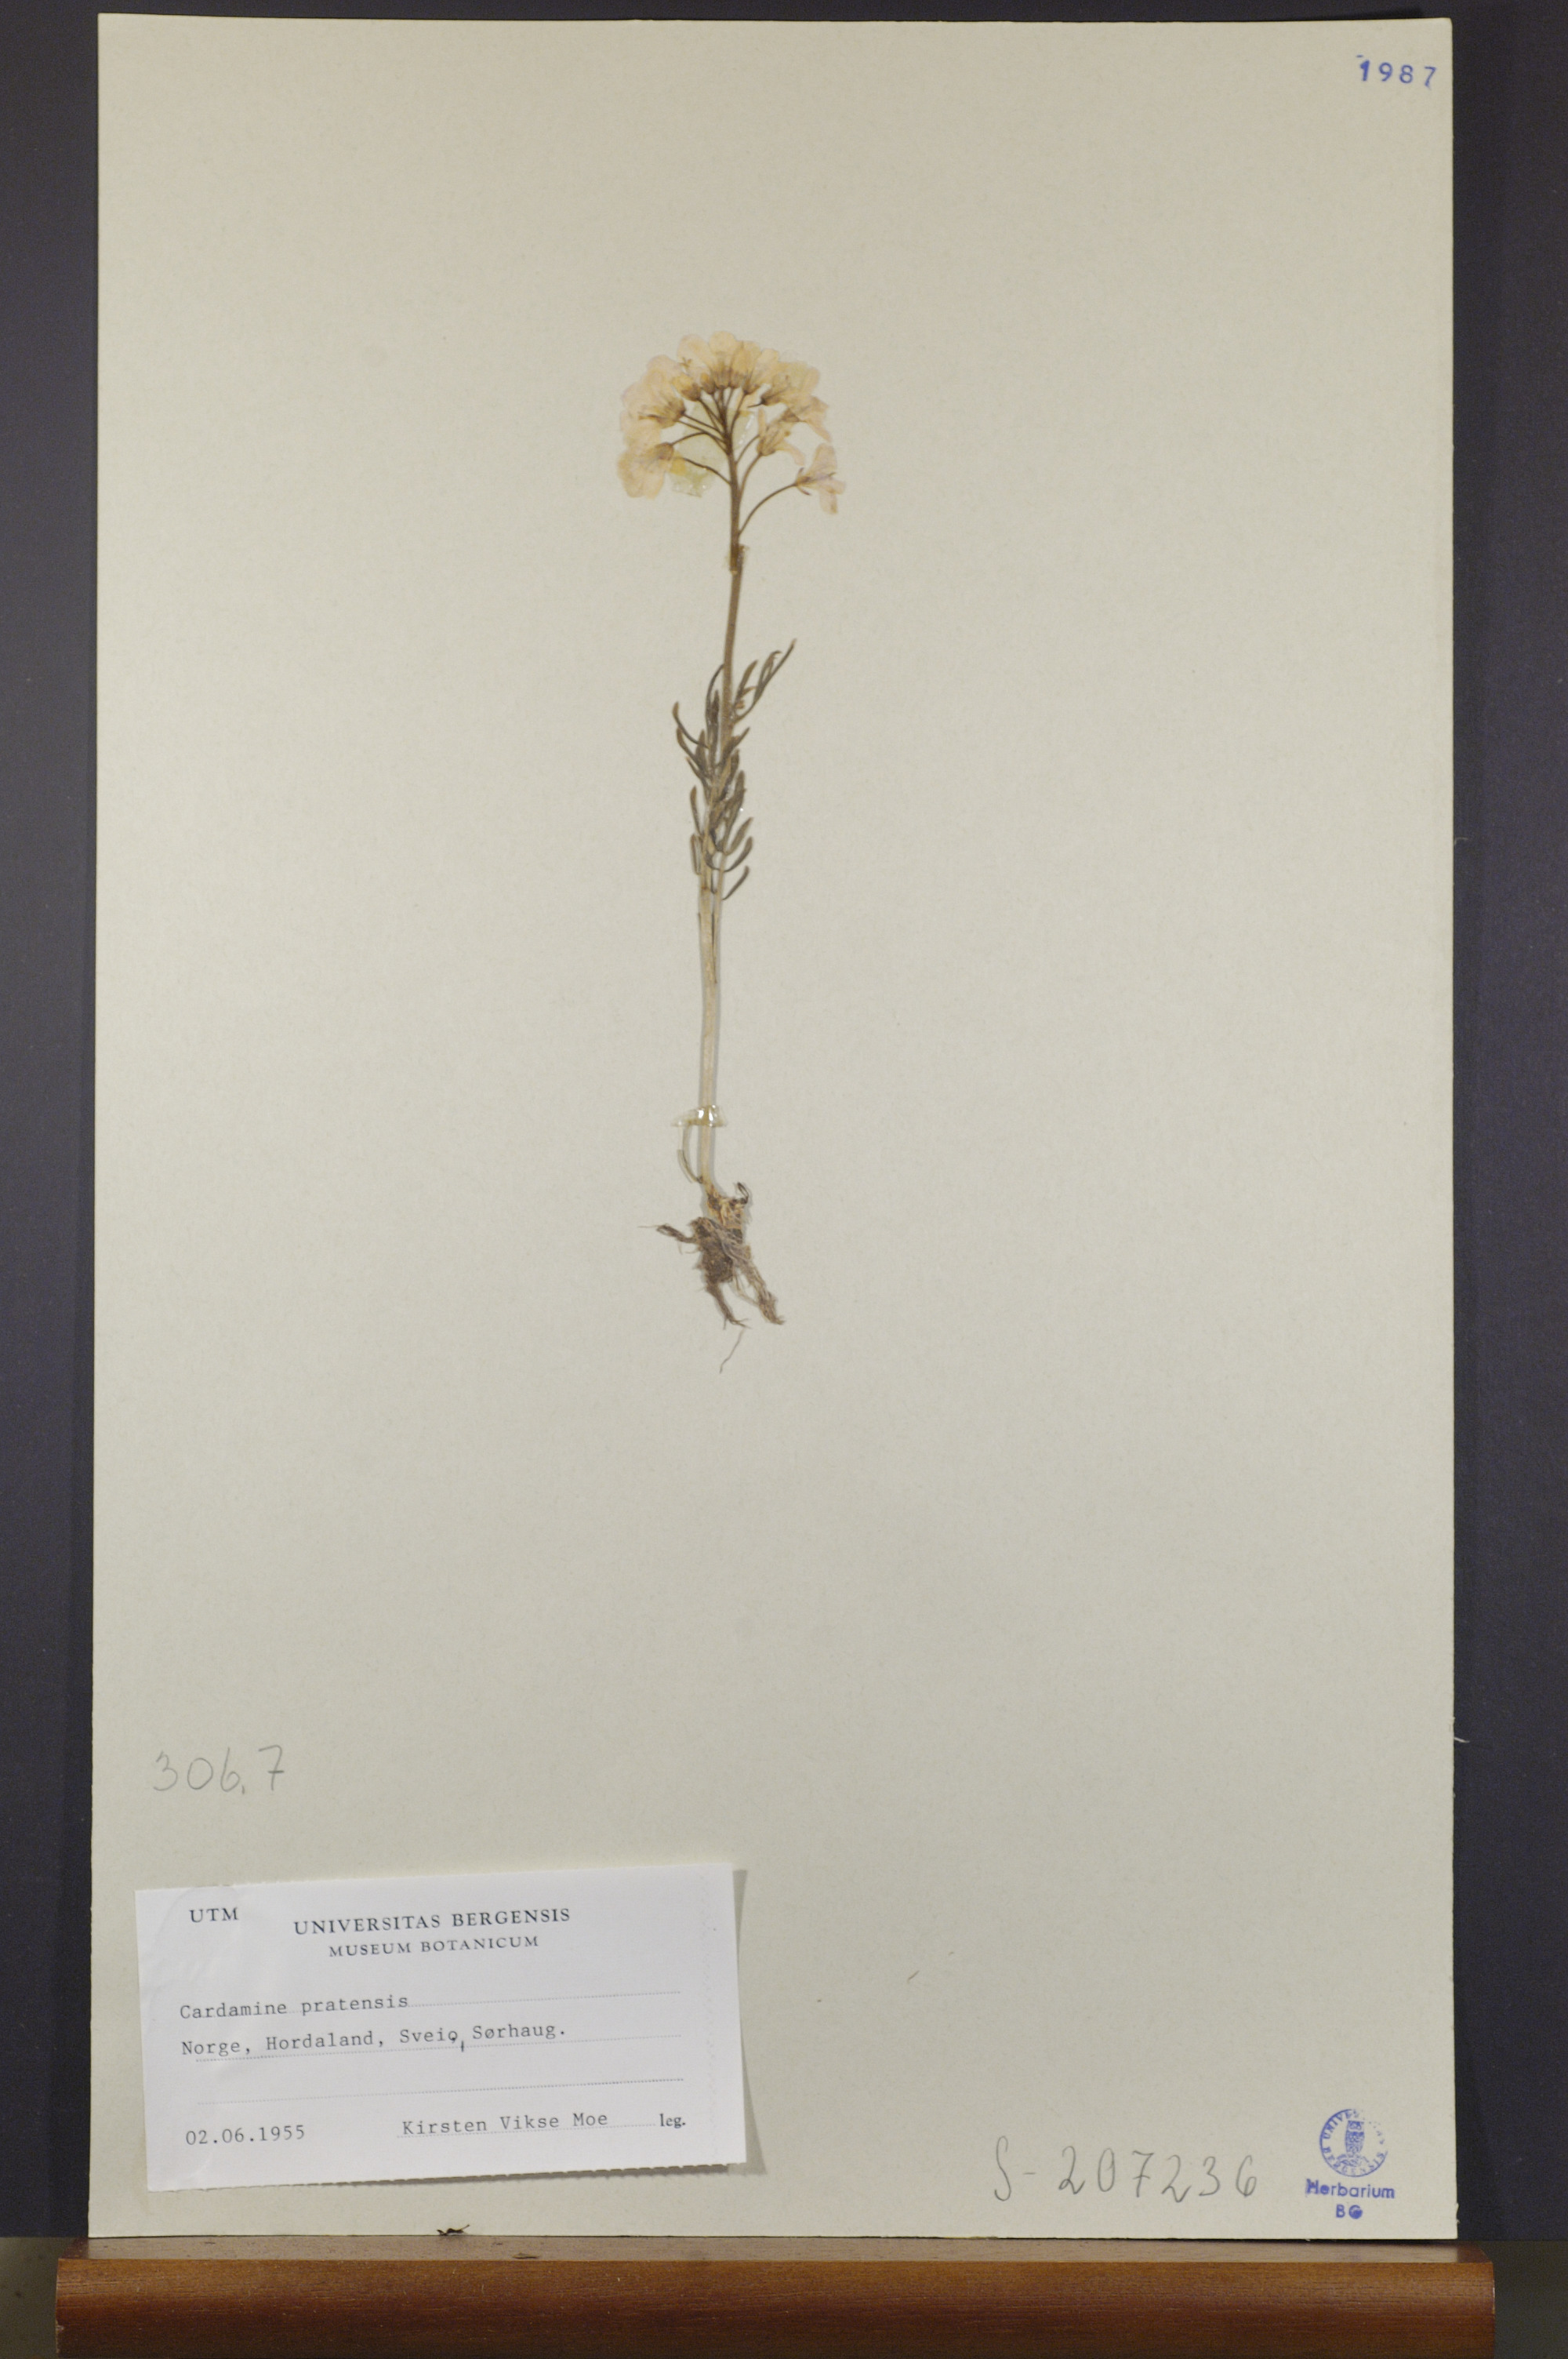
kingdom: Plantae
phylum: Tracheophyta
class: Magnoliopsida
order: Brassicales
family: Brassicaceae
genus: Cardamine
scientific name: Cardamine pratensis
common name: Cuckoo flower
